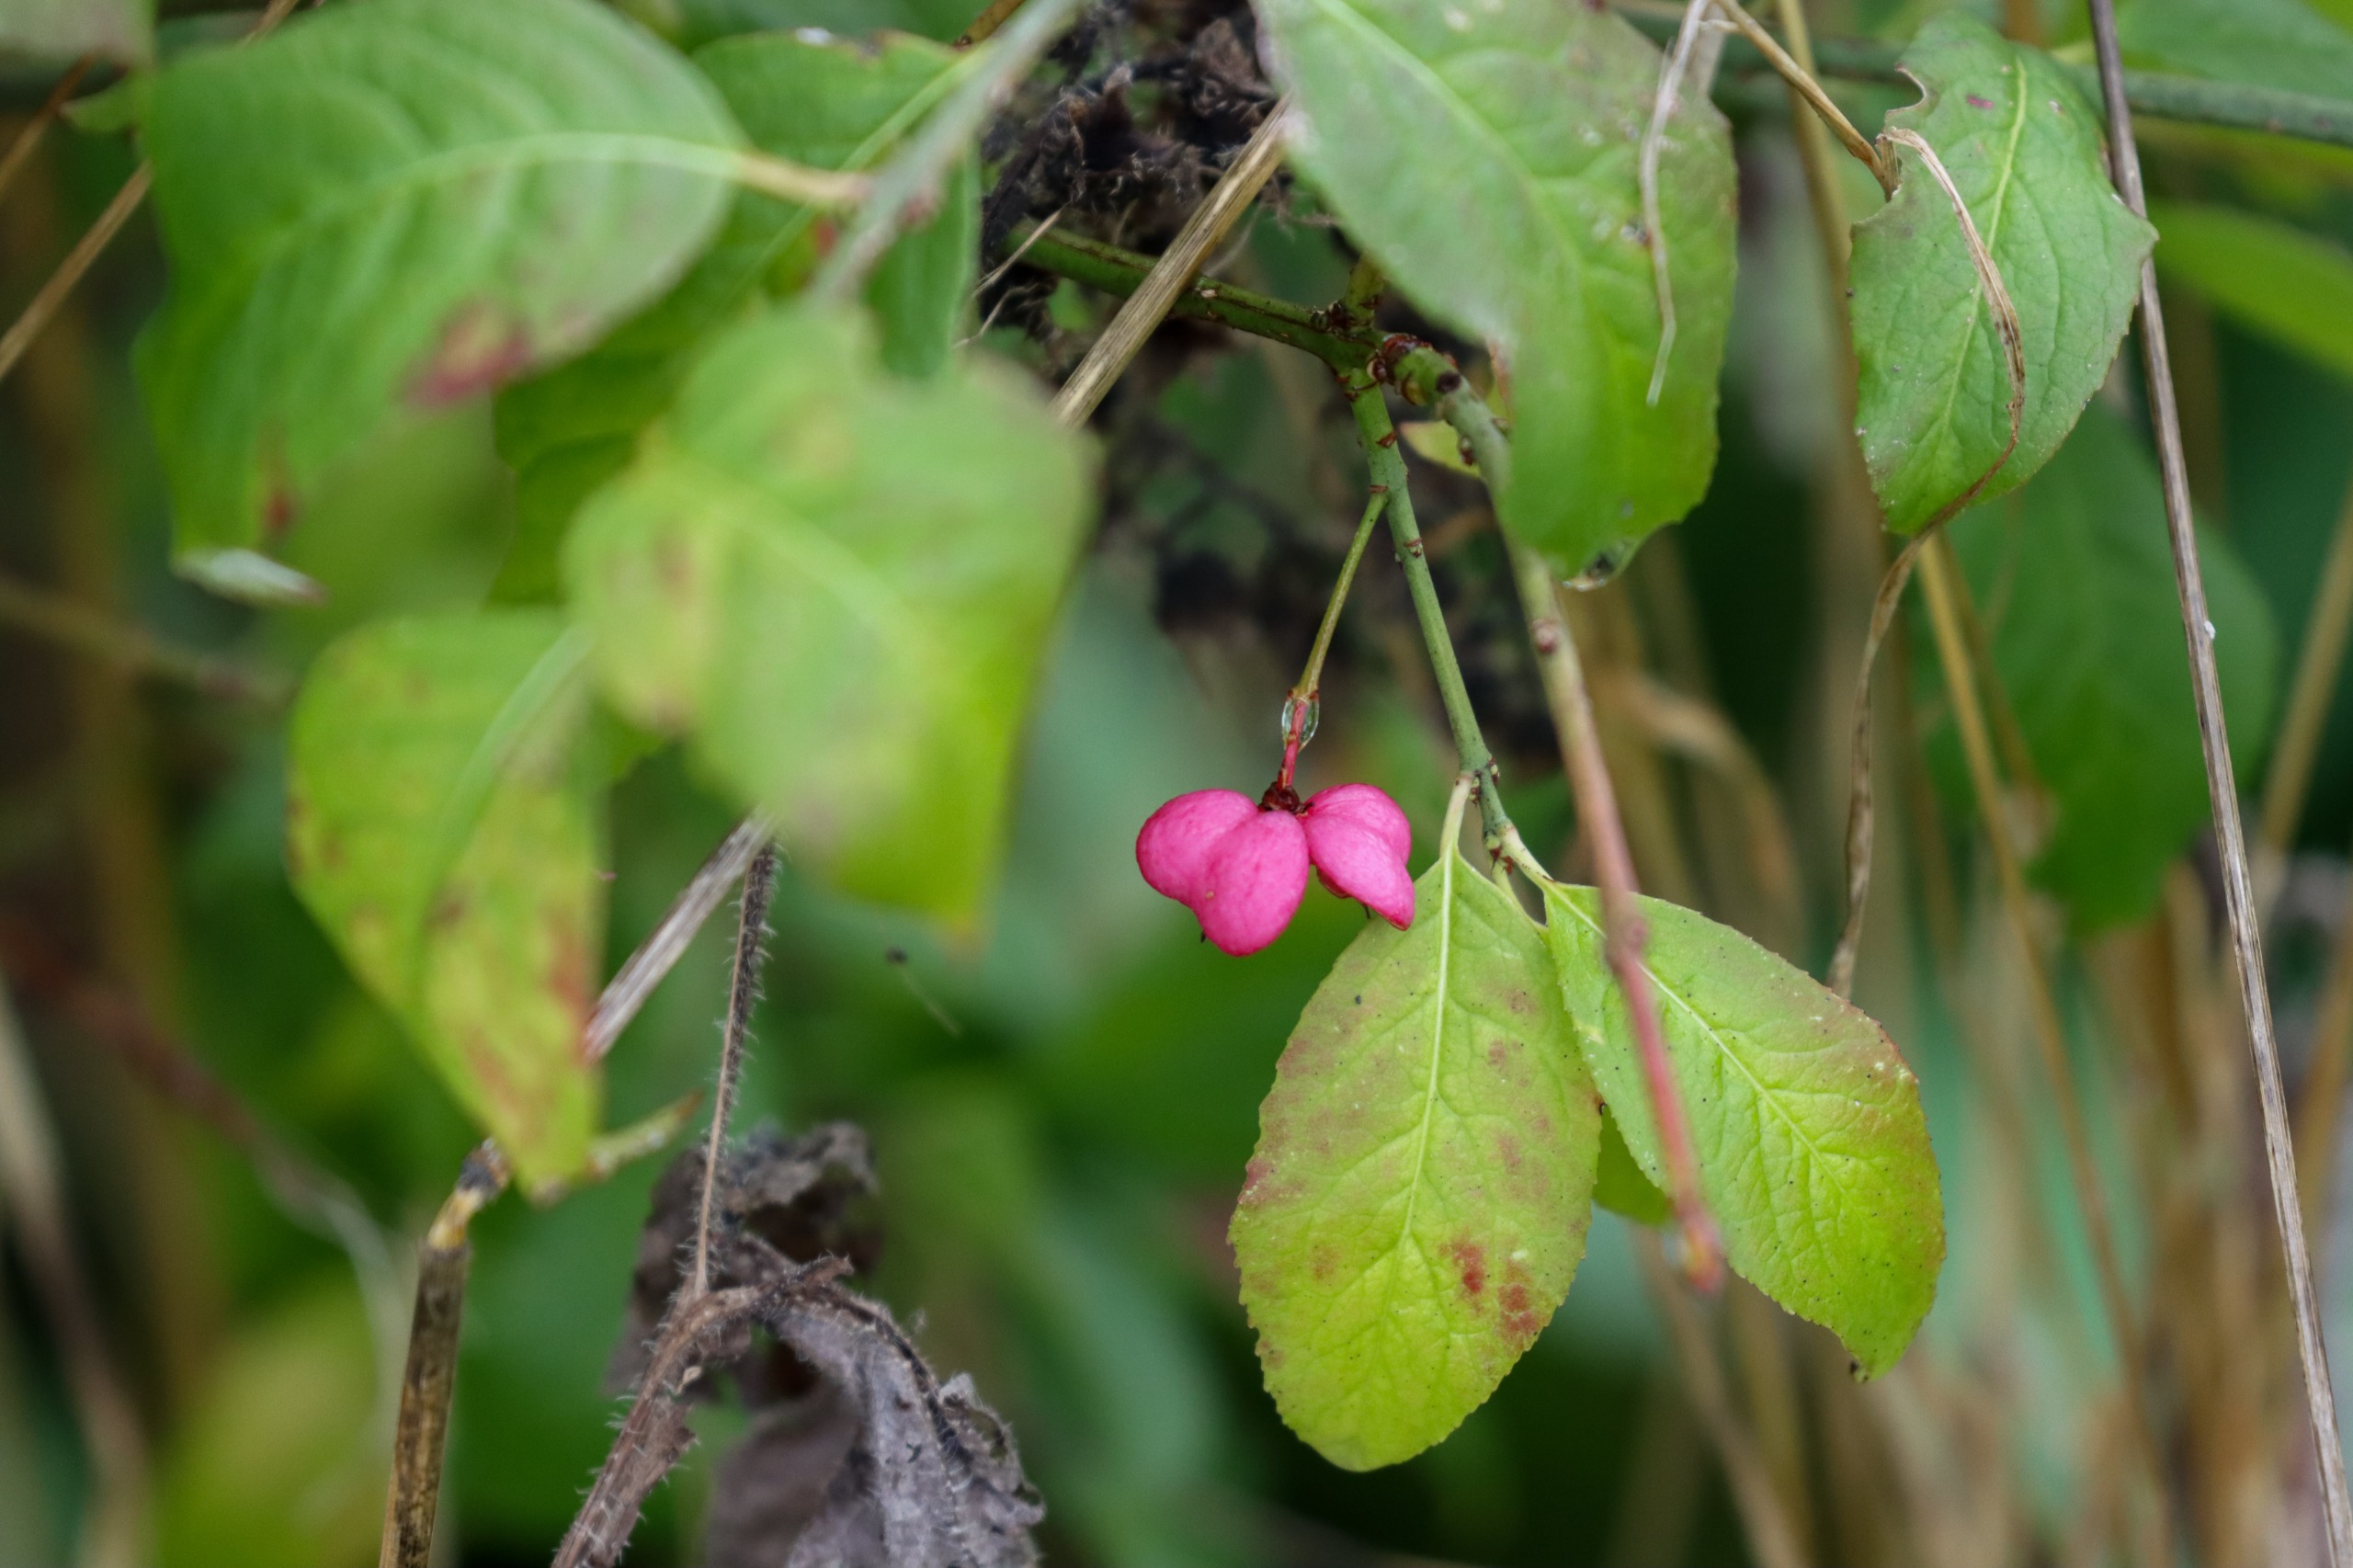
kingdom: Plantae
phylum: Tracheophyta
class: Magnoliopsida
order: Celastrales
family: Celastraceae
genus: Euonymus
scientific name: Euonymus europaeus
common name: Benved
